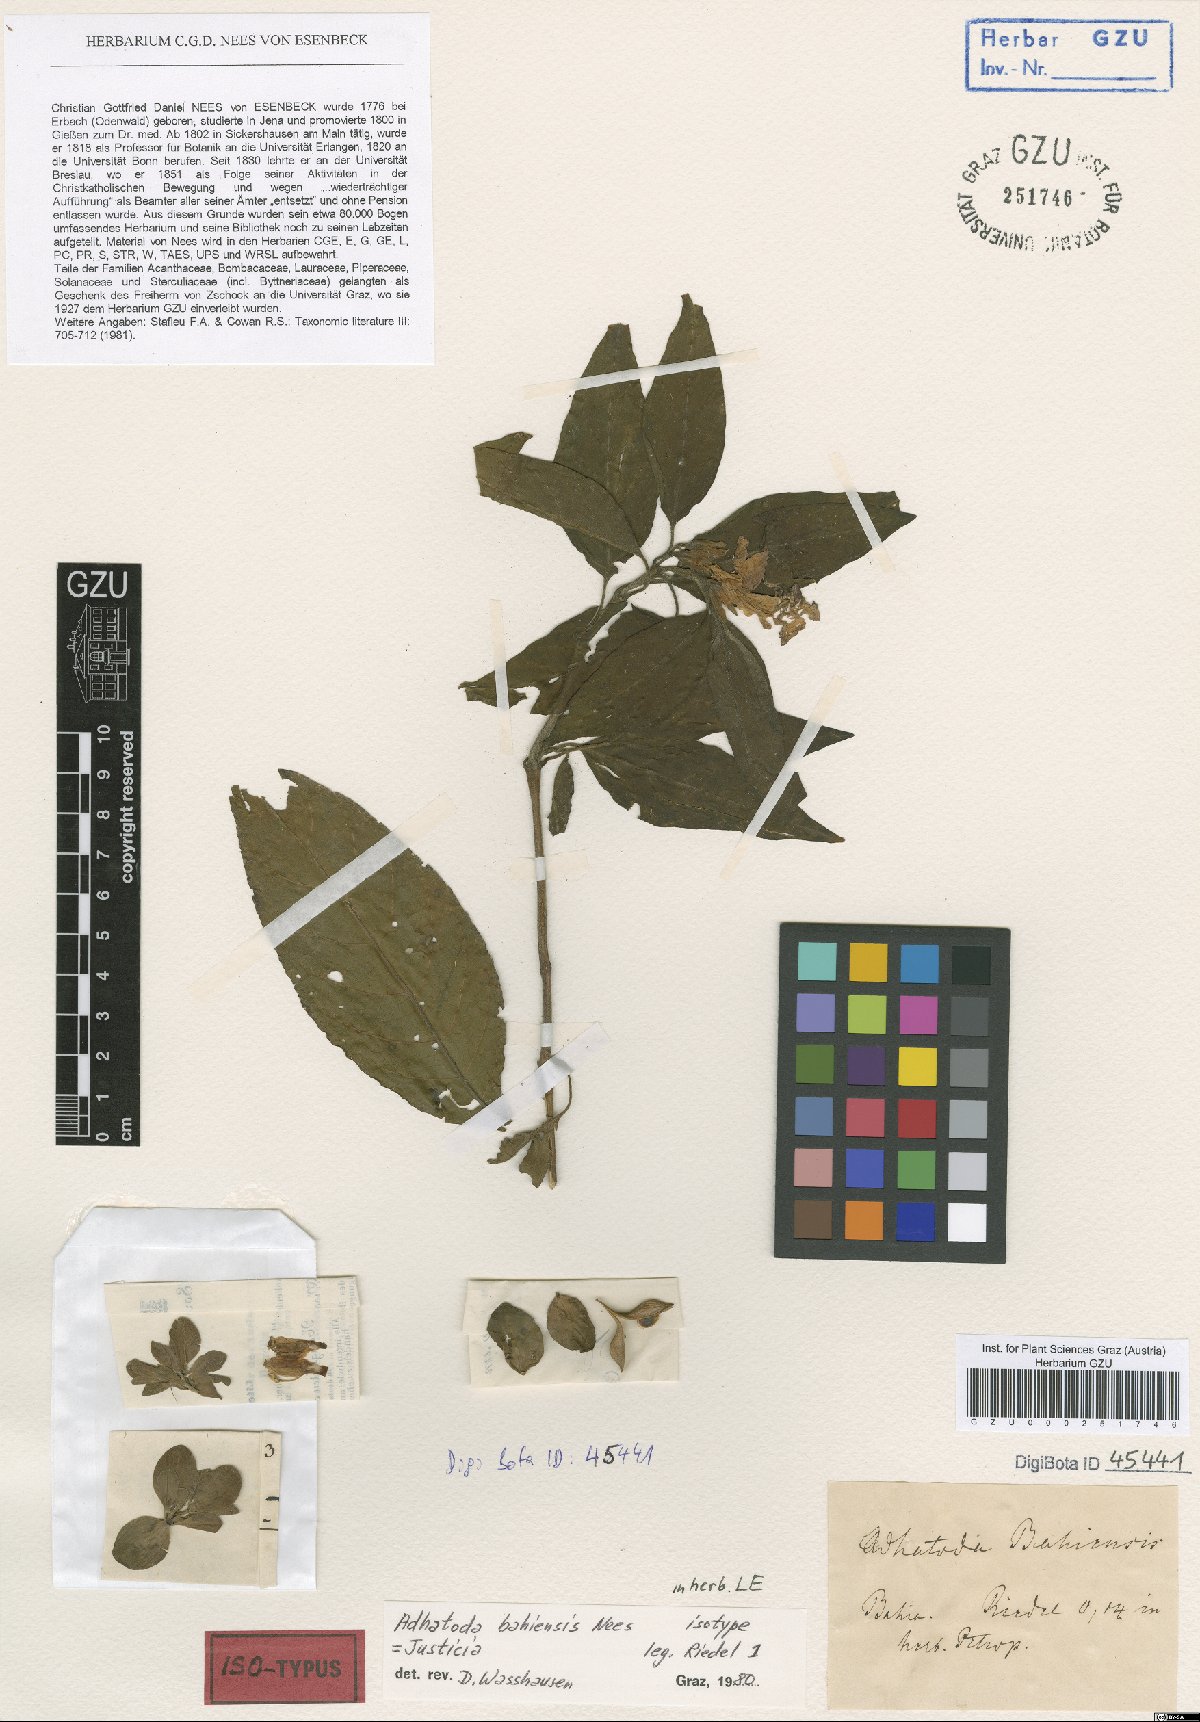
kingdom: Plantae
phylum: Tracheophyta
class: Magnoliopsida
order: Lamiales
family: Acanthaceae
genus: Poikilacanthus
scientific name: Poikilacanthus bahiensis
